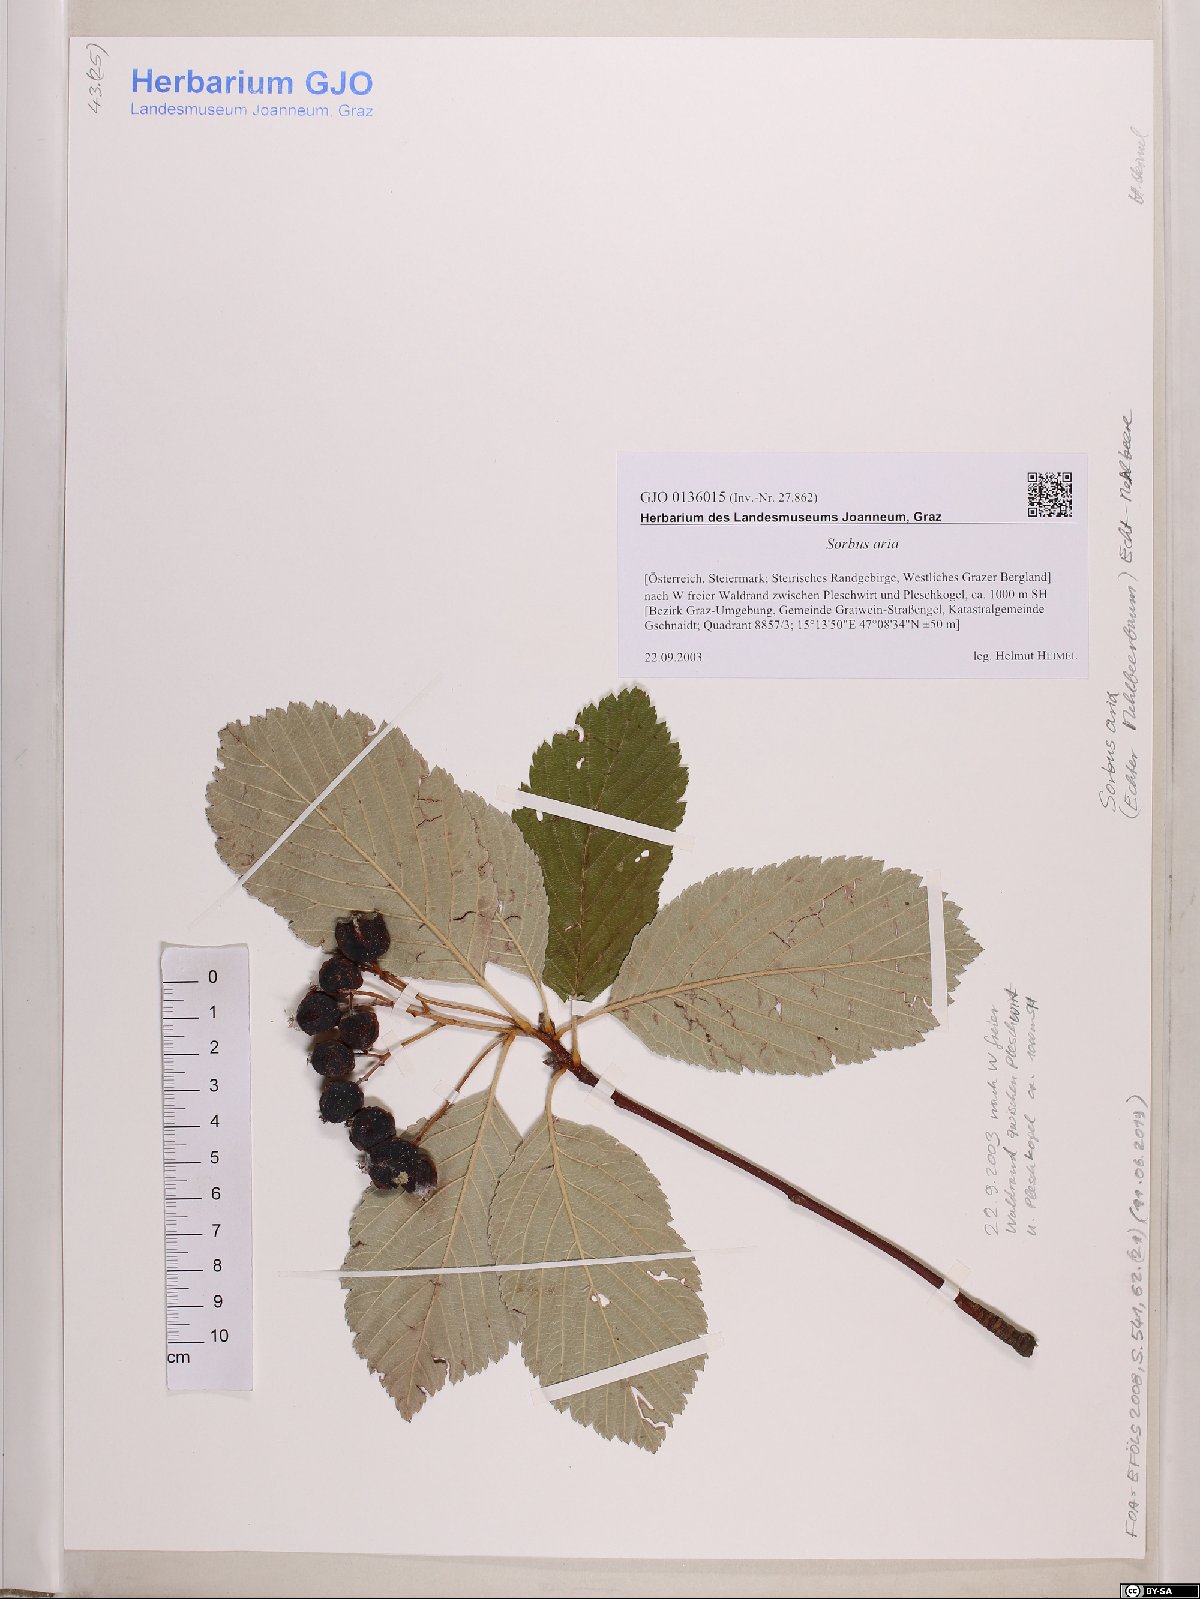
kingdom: Plantae
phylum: Tracheophyta
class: Magnoliopsida
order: Rosales
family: Rosaceae
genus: Aria
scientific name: Aria edulis
